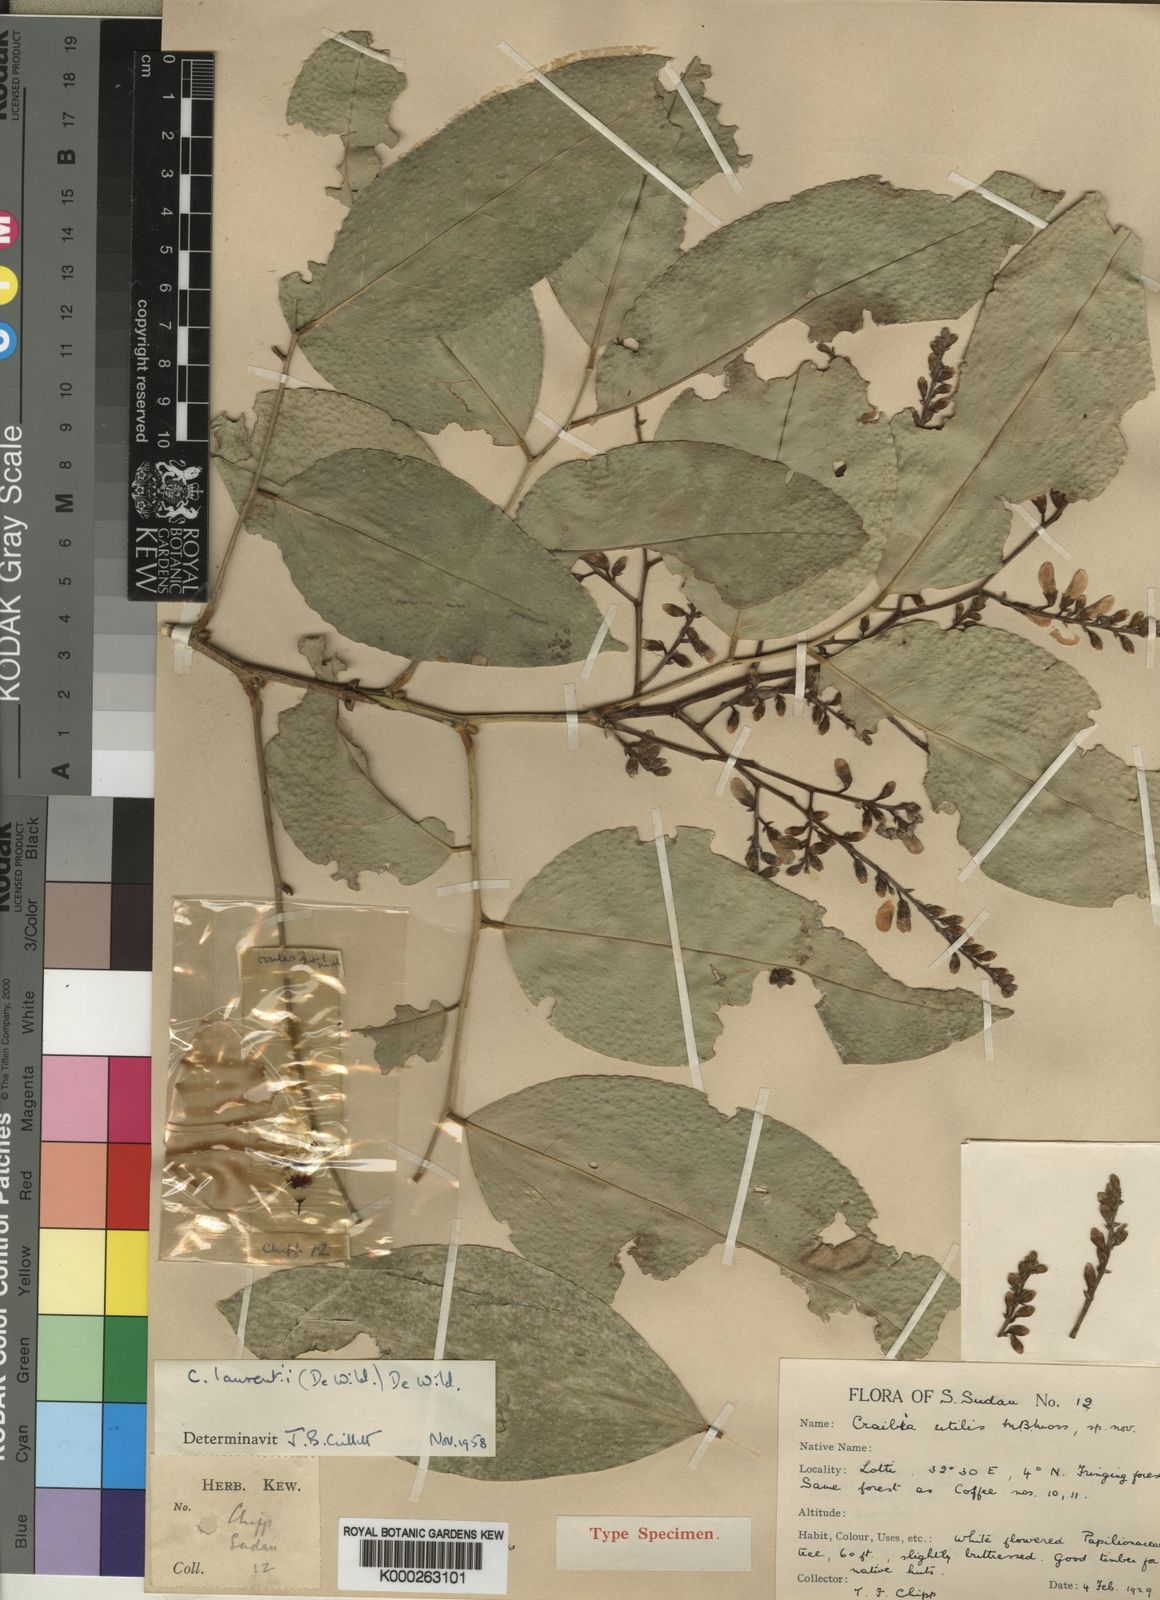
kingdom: Plantae
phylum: Tracheophyta
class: Magnoliopsida
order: Fabales
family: Fabaceae
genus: Craibia
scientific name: Craibia laurentii
